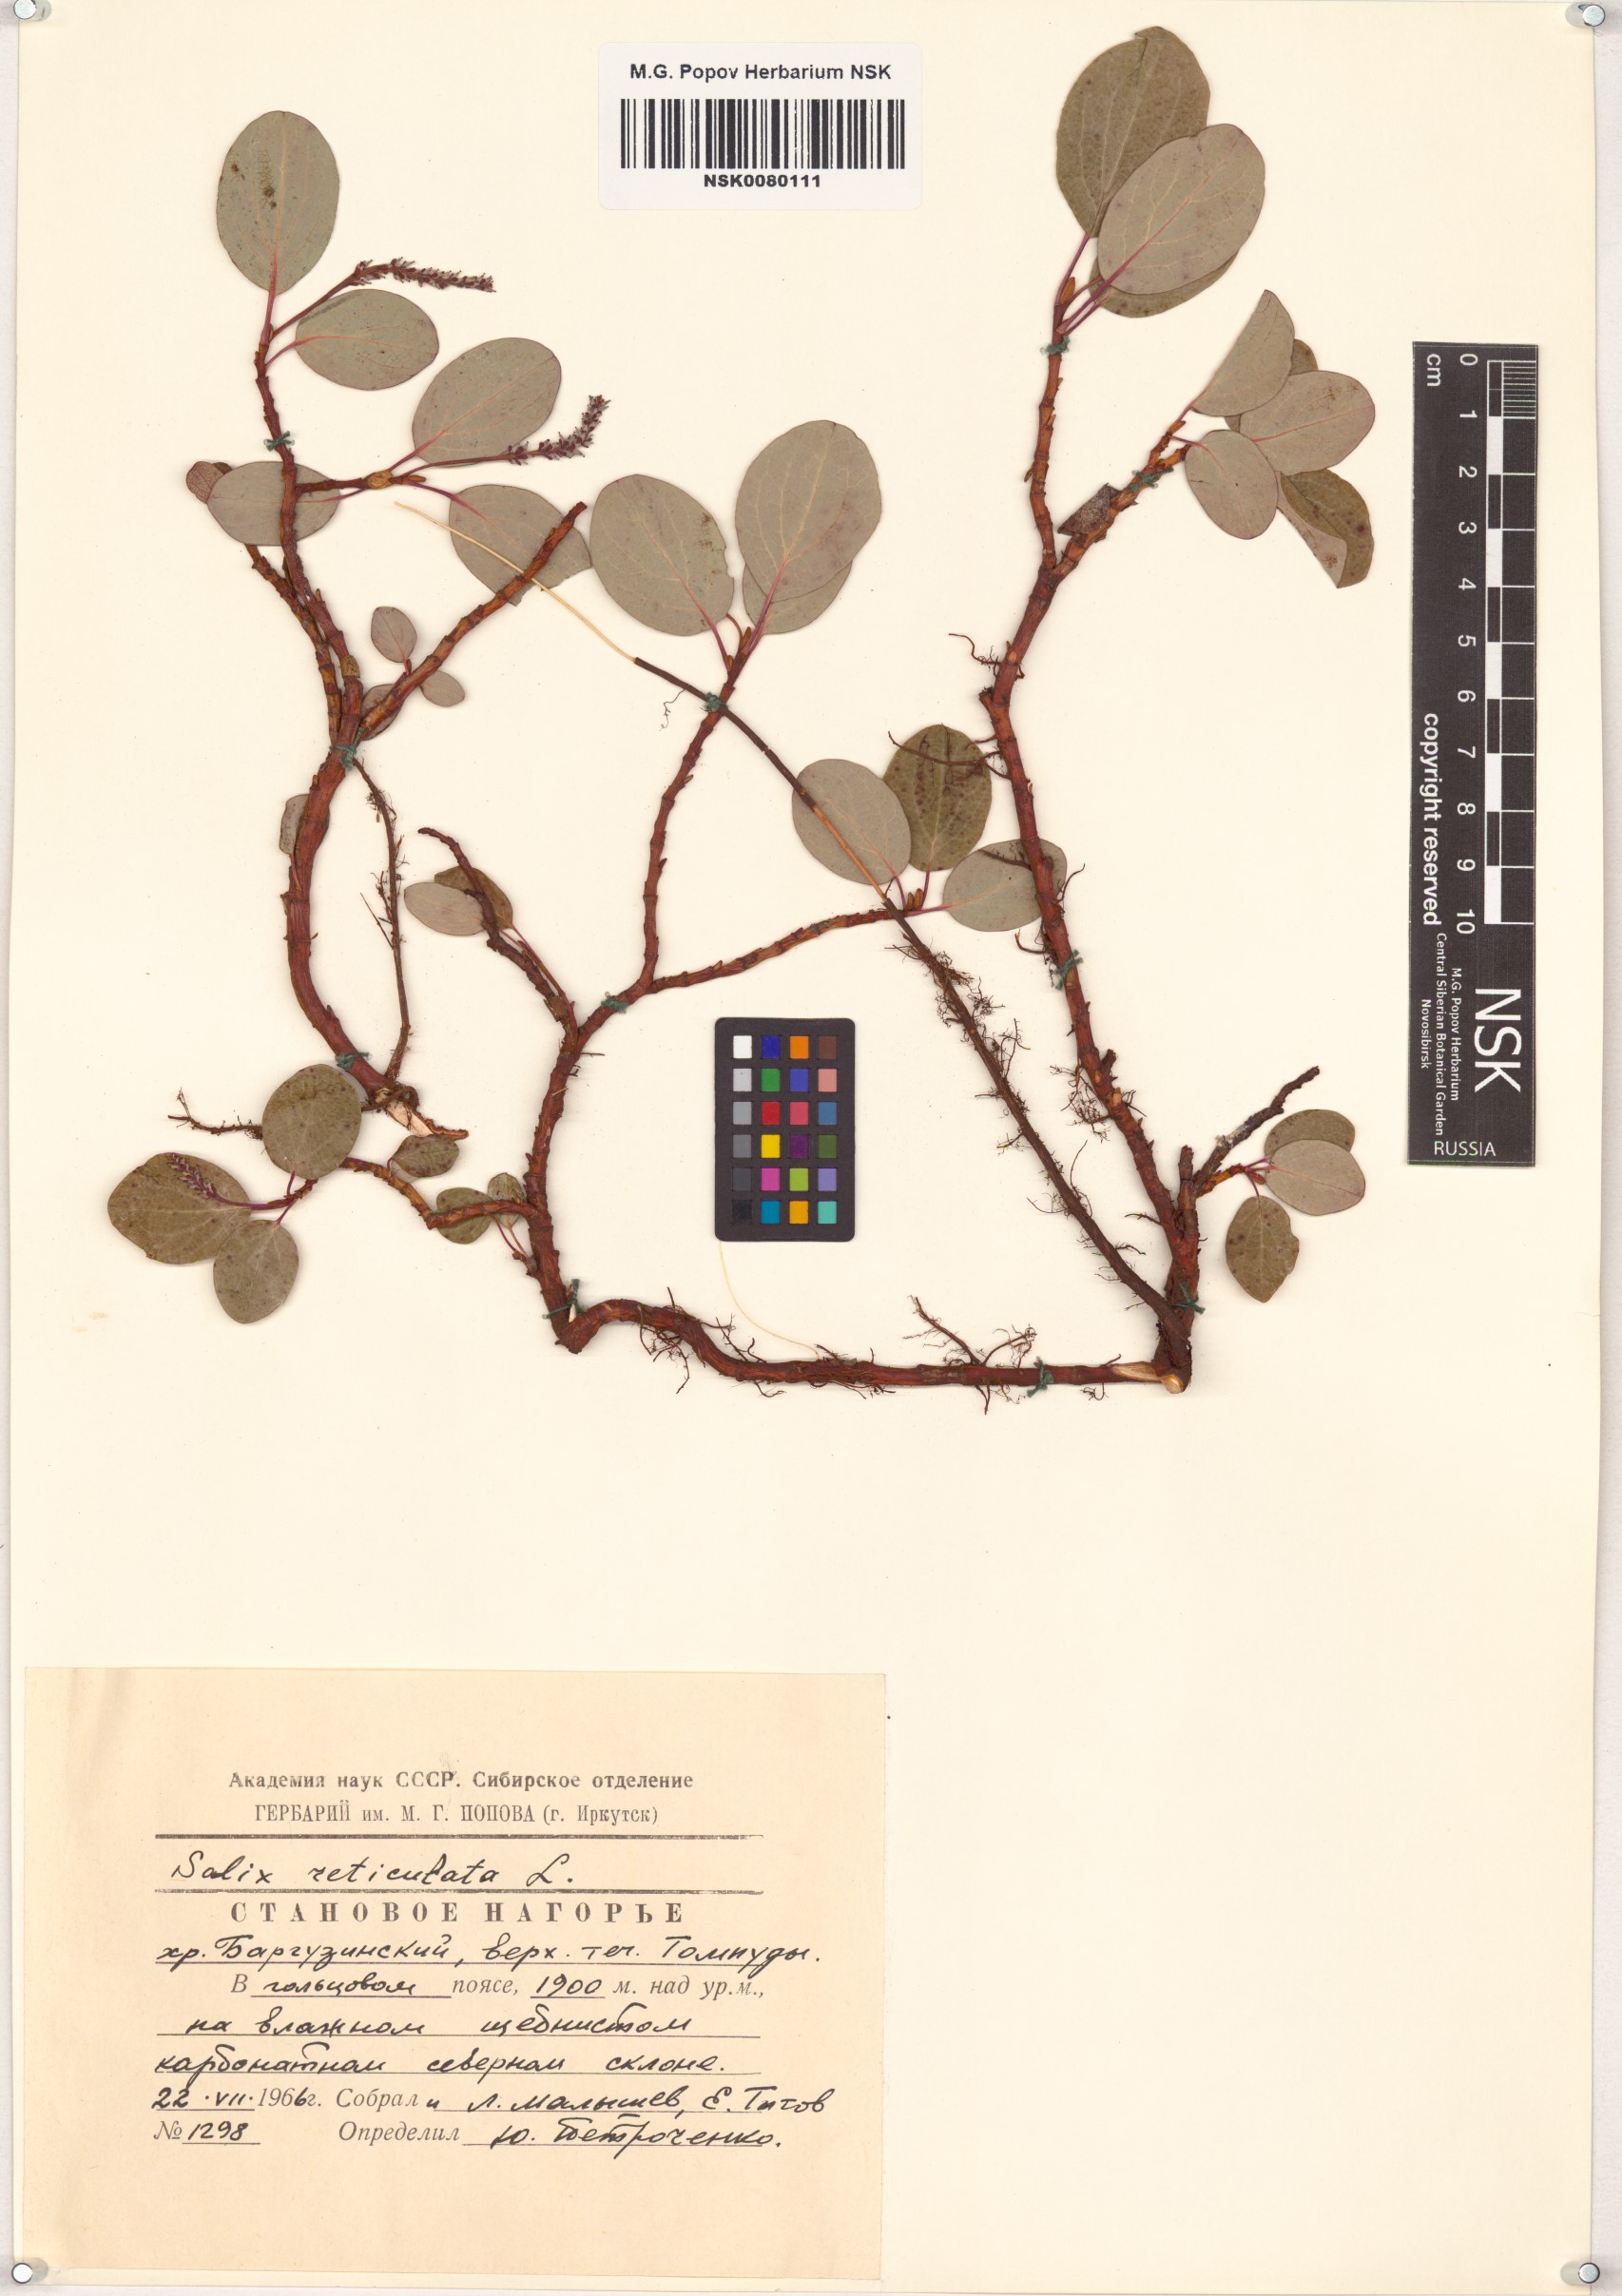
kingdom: Plantae
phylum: Tracheophyta
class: Magnoliopsida
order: Malpighiales
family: Salicaceae
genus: Salix
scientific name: Salix reticulata
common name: Net-leaved willow
